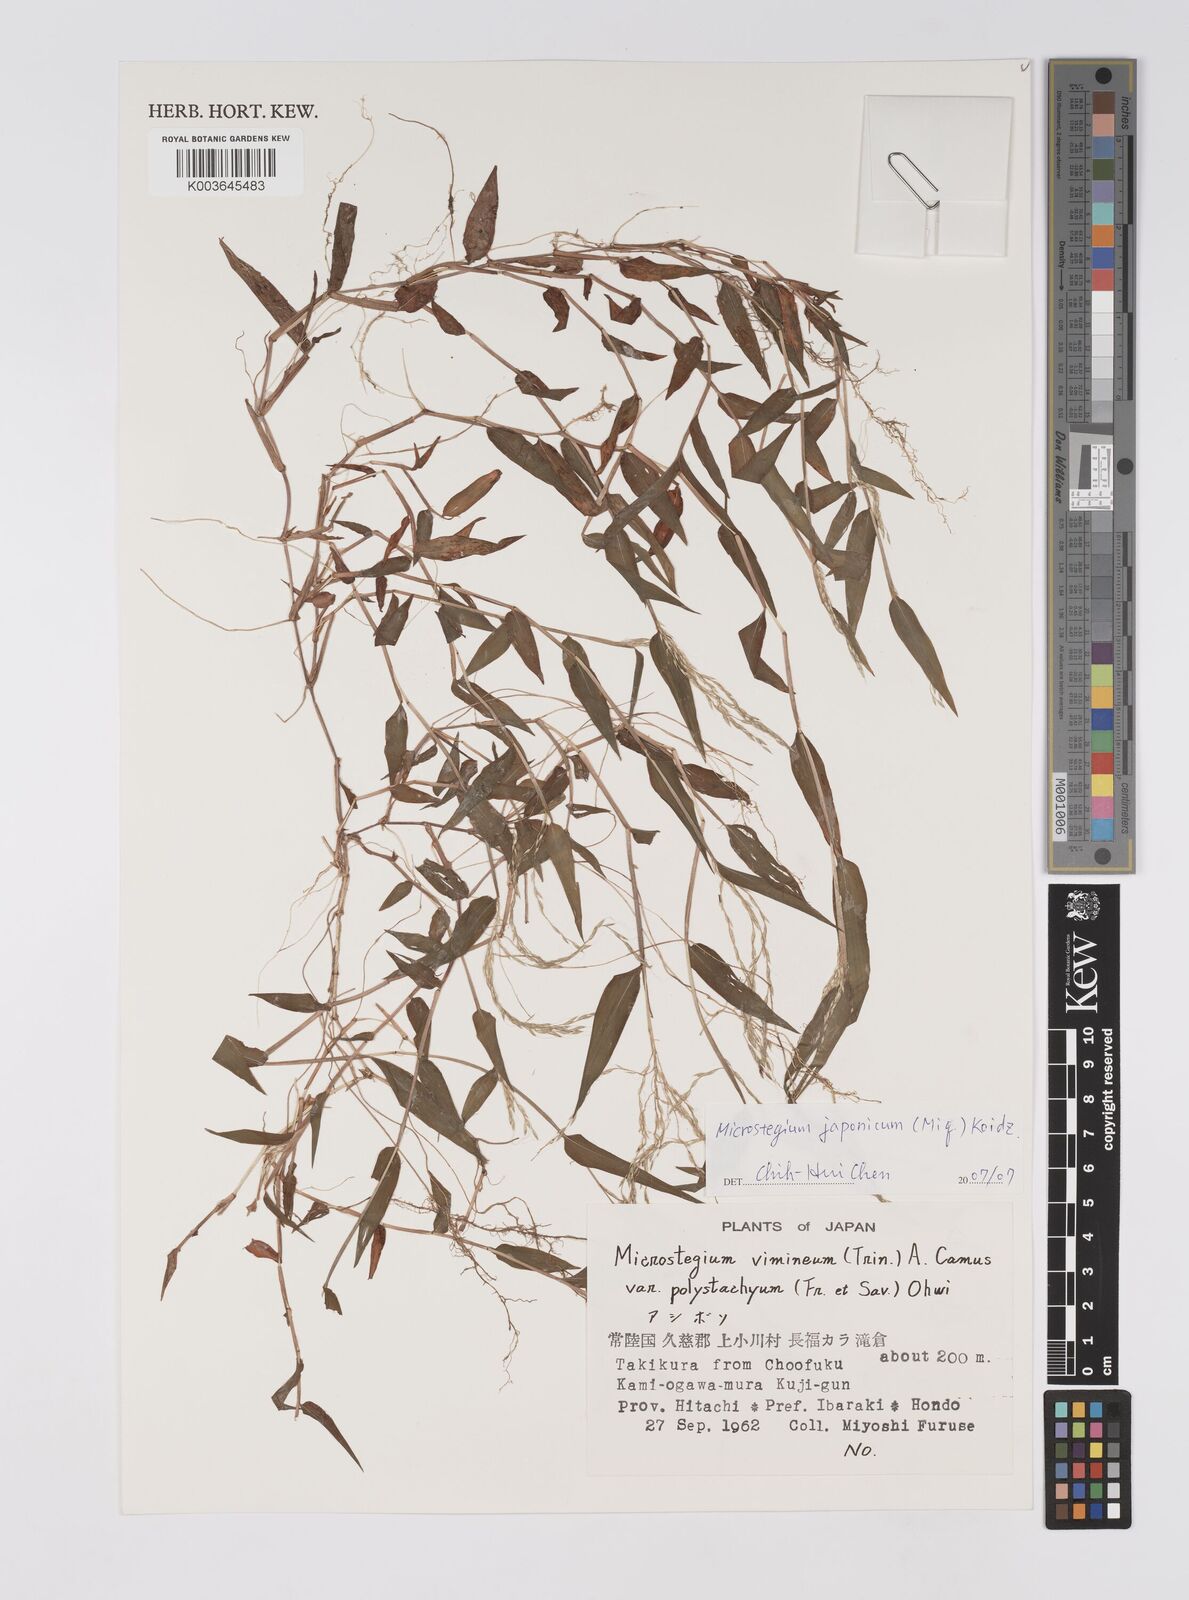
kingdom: Plantae
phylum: Tracheophyta
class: Liliopsida
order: Poales
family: Poaceae
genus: Microstegium
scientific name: Microstegium japonicum
